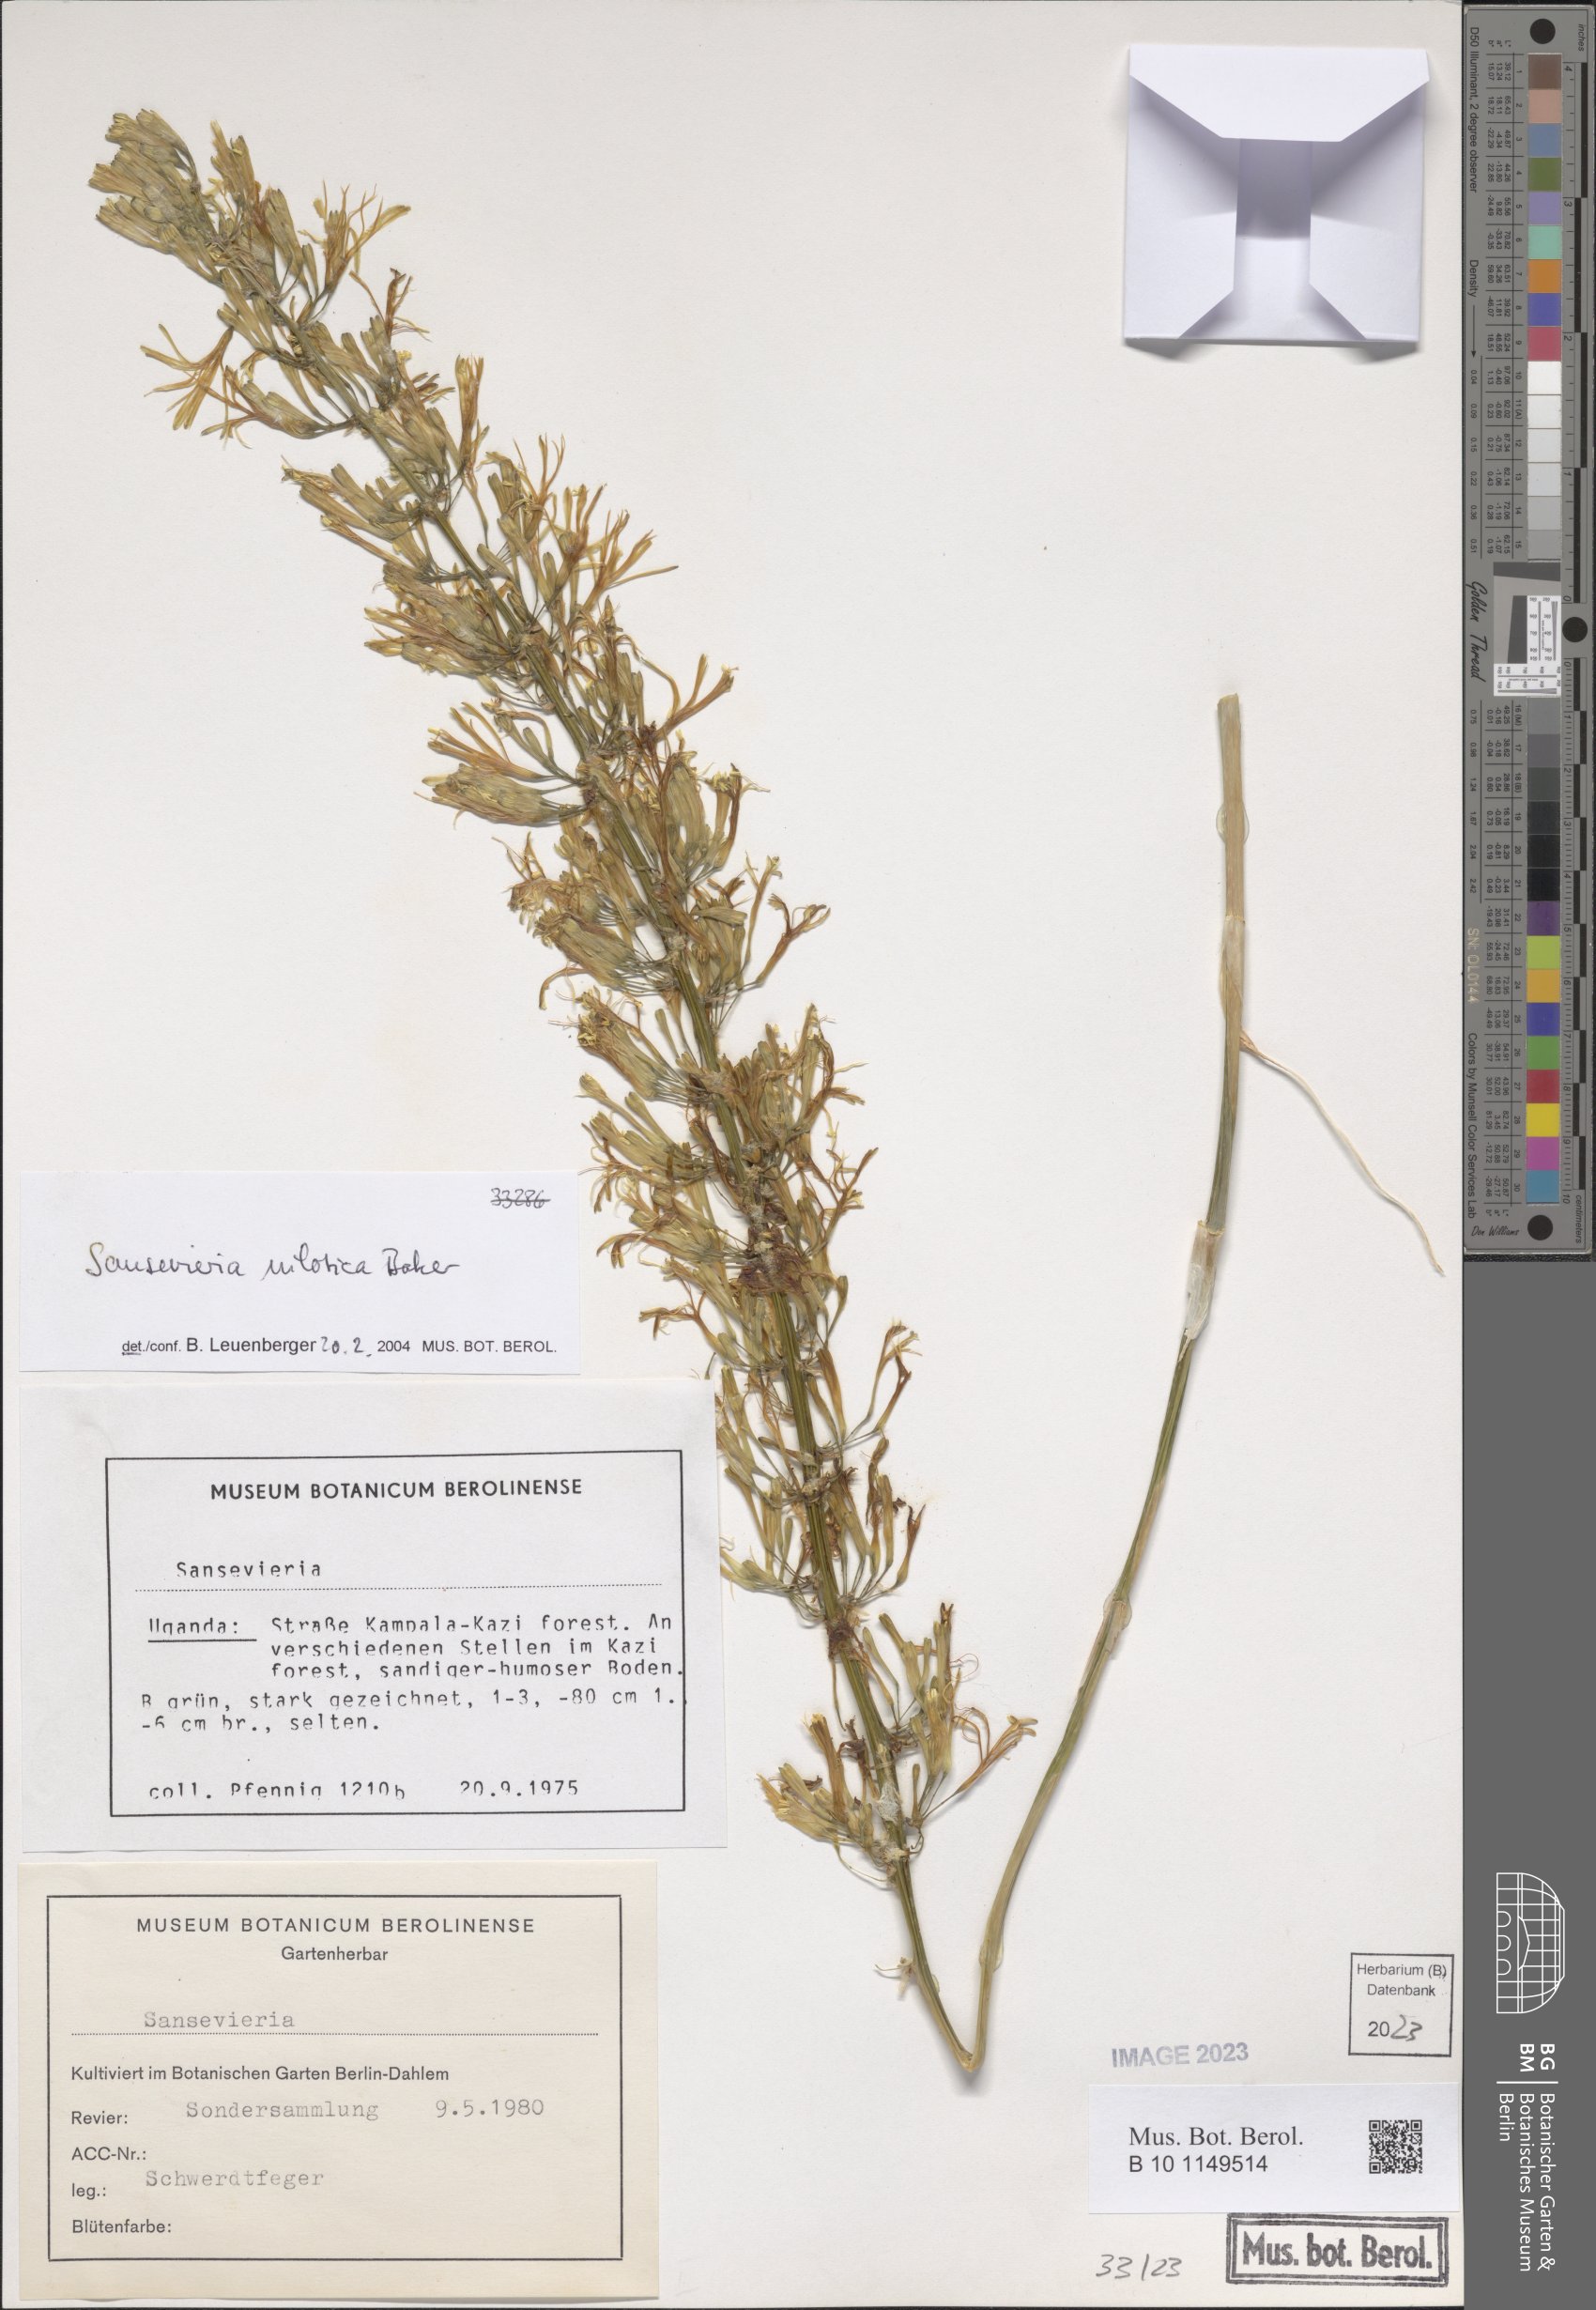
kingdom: Plantae
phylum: Tracheophyta
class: Liliopsida
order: Asparagales
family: Asparagaceae
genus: Dracaena
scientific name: Dracaena nilotica
